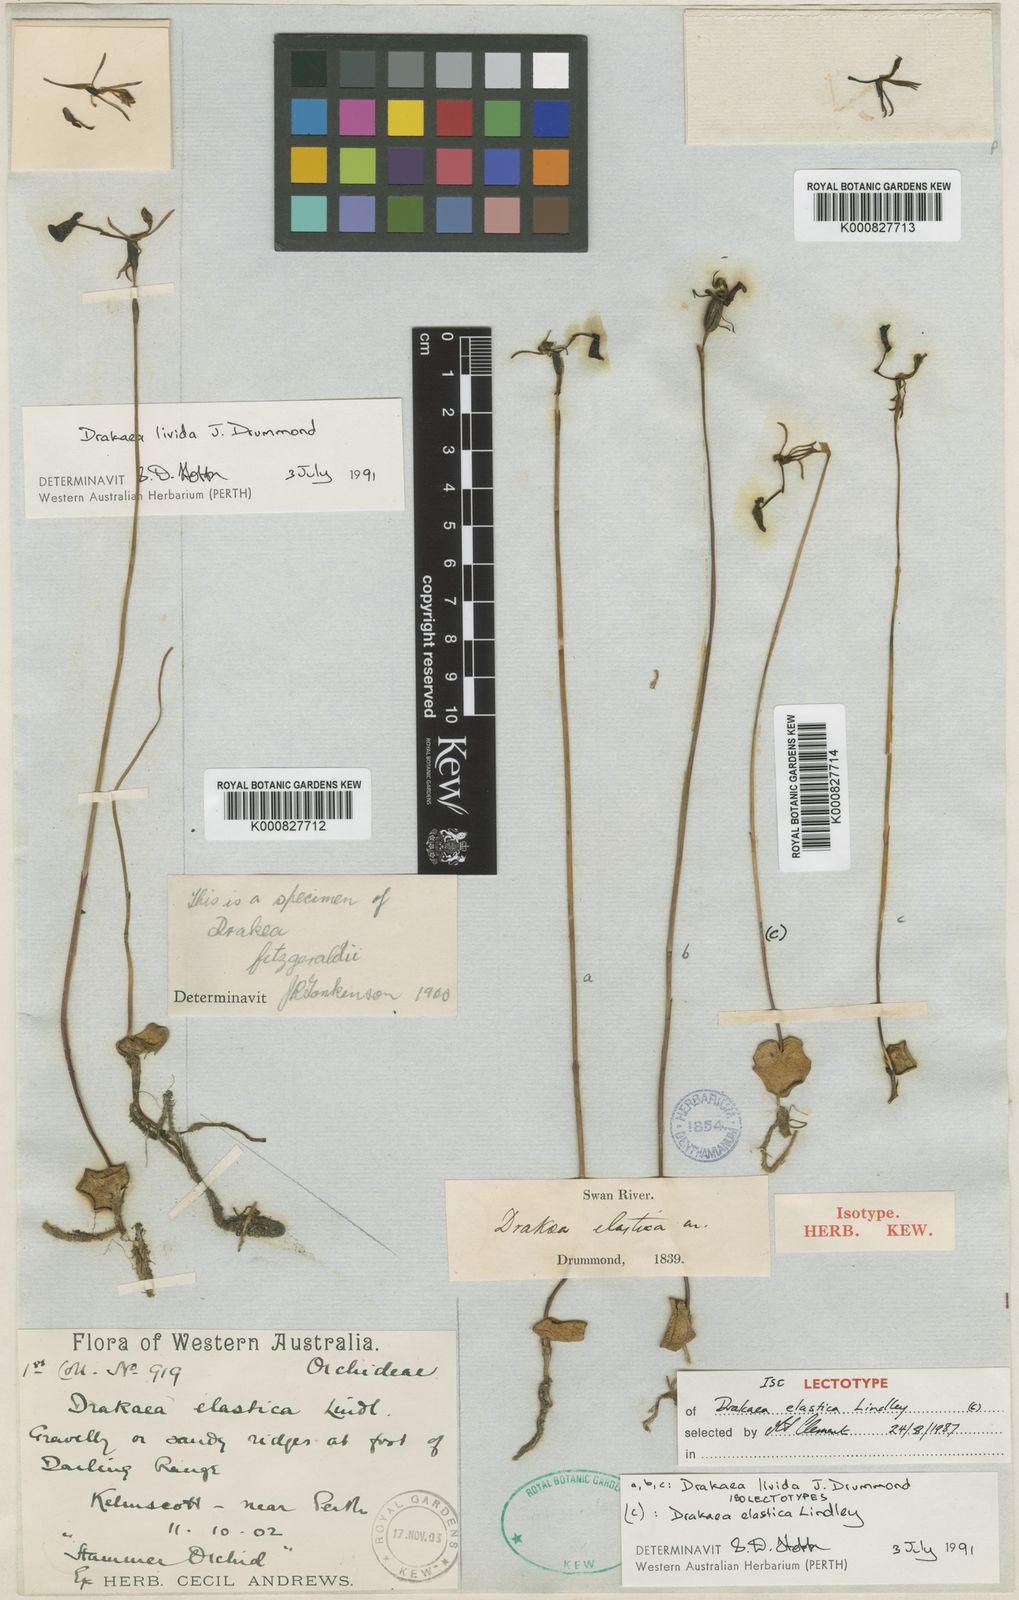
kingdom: Plantae
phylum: Tracheophyta
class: Liliopsida
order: Asparagales
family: Orchidaceae
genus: Drakaea
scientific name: Drakaea elastica
